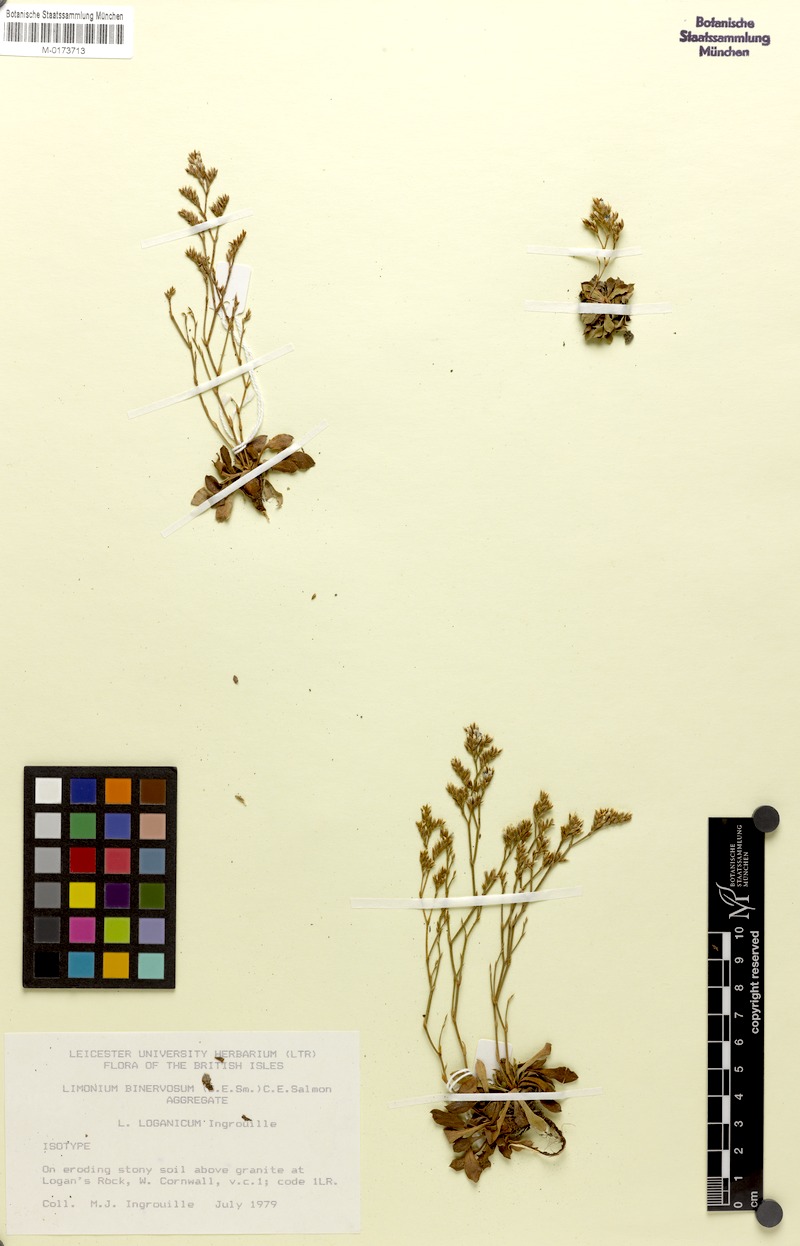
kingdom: Plantae
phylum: Tracheophyta
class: Magnoliopsida
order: Caryophyllales
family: Plumbaginaceae
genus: Limonium
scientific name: Limonium loganicum
